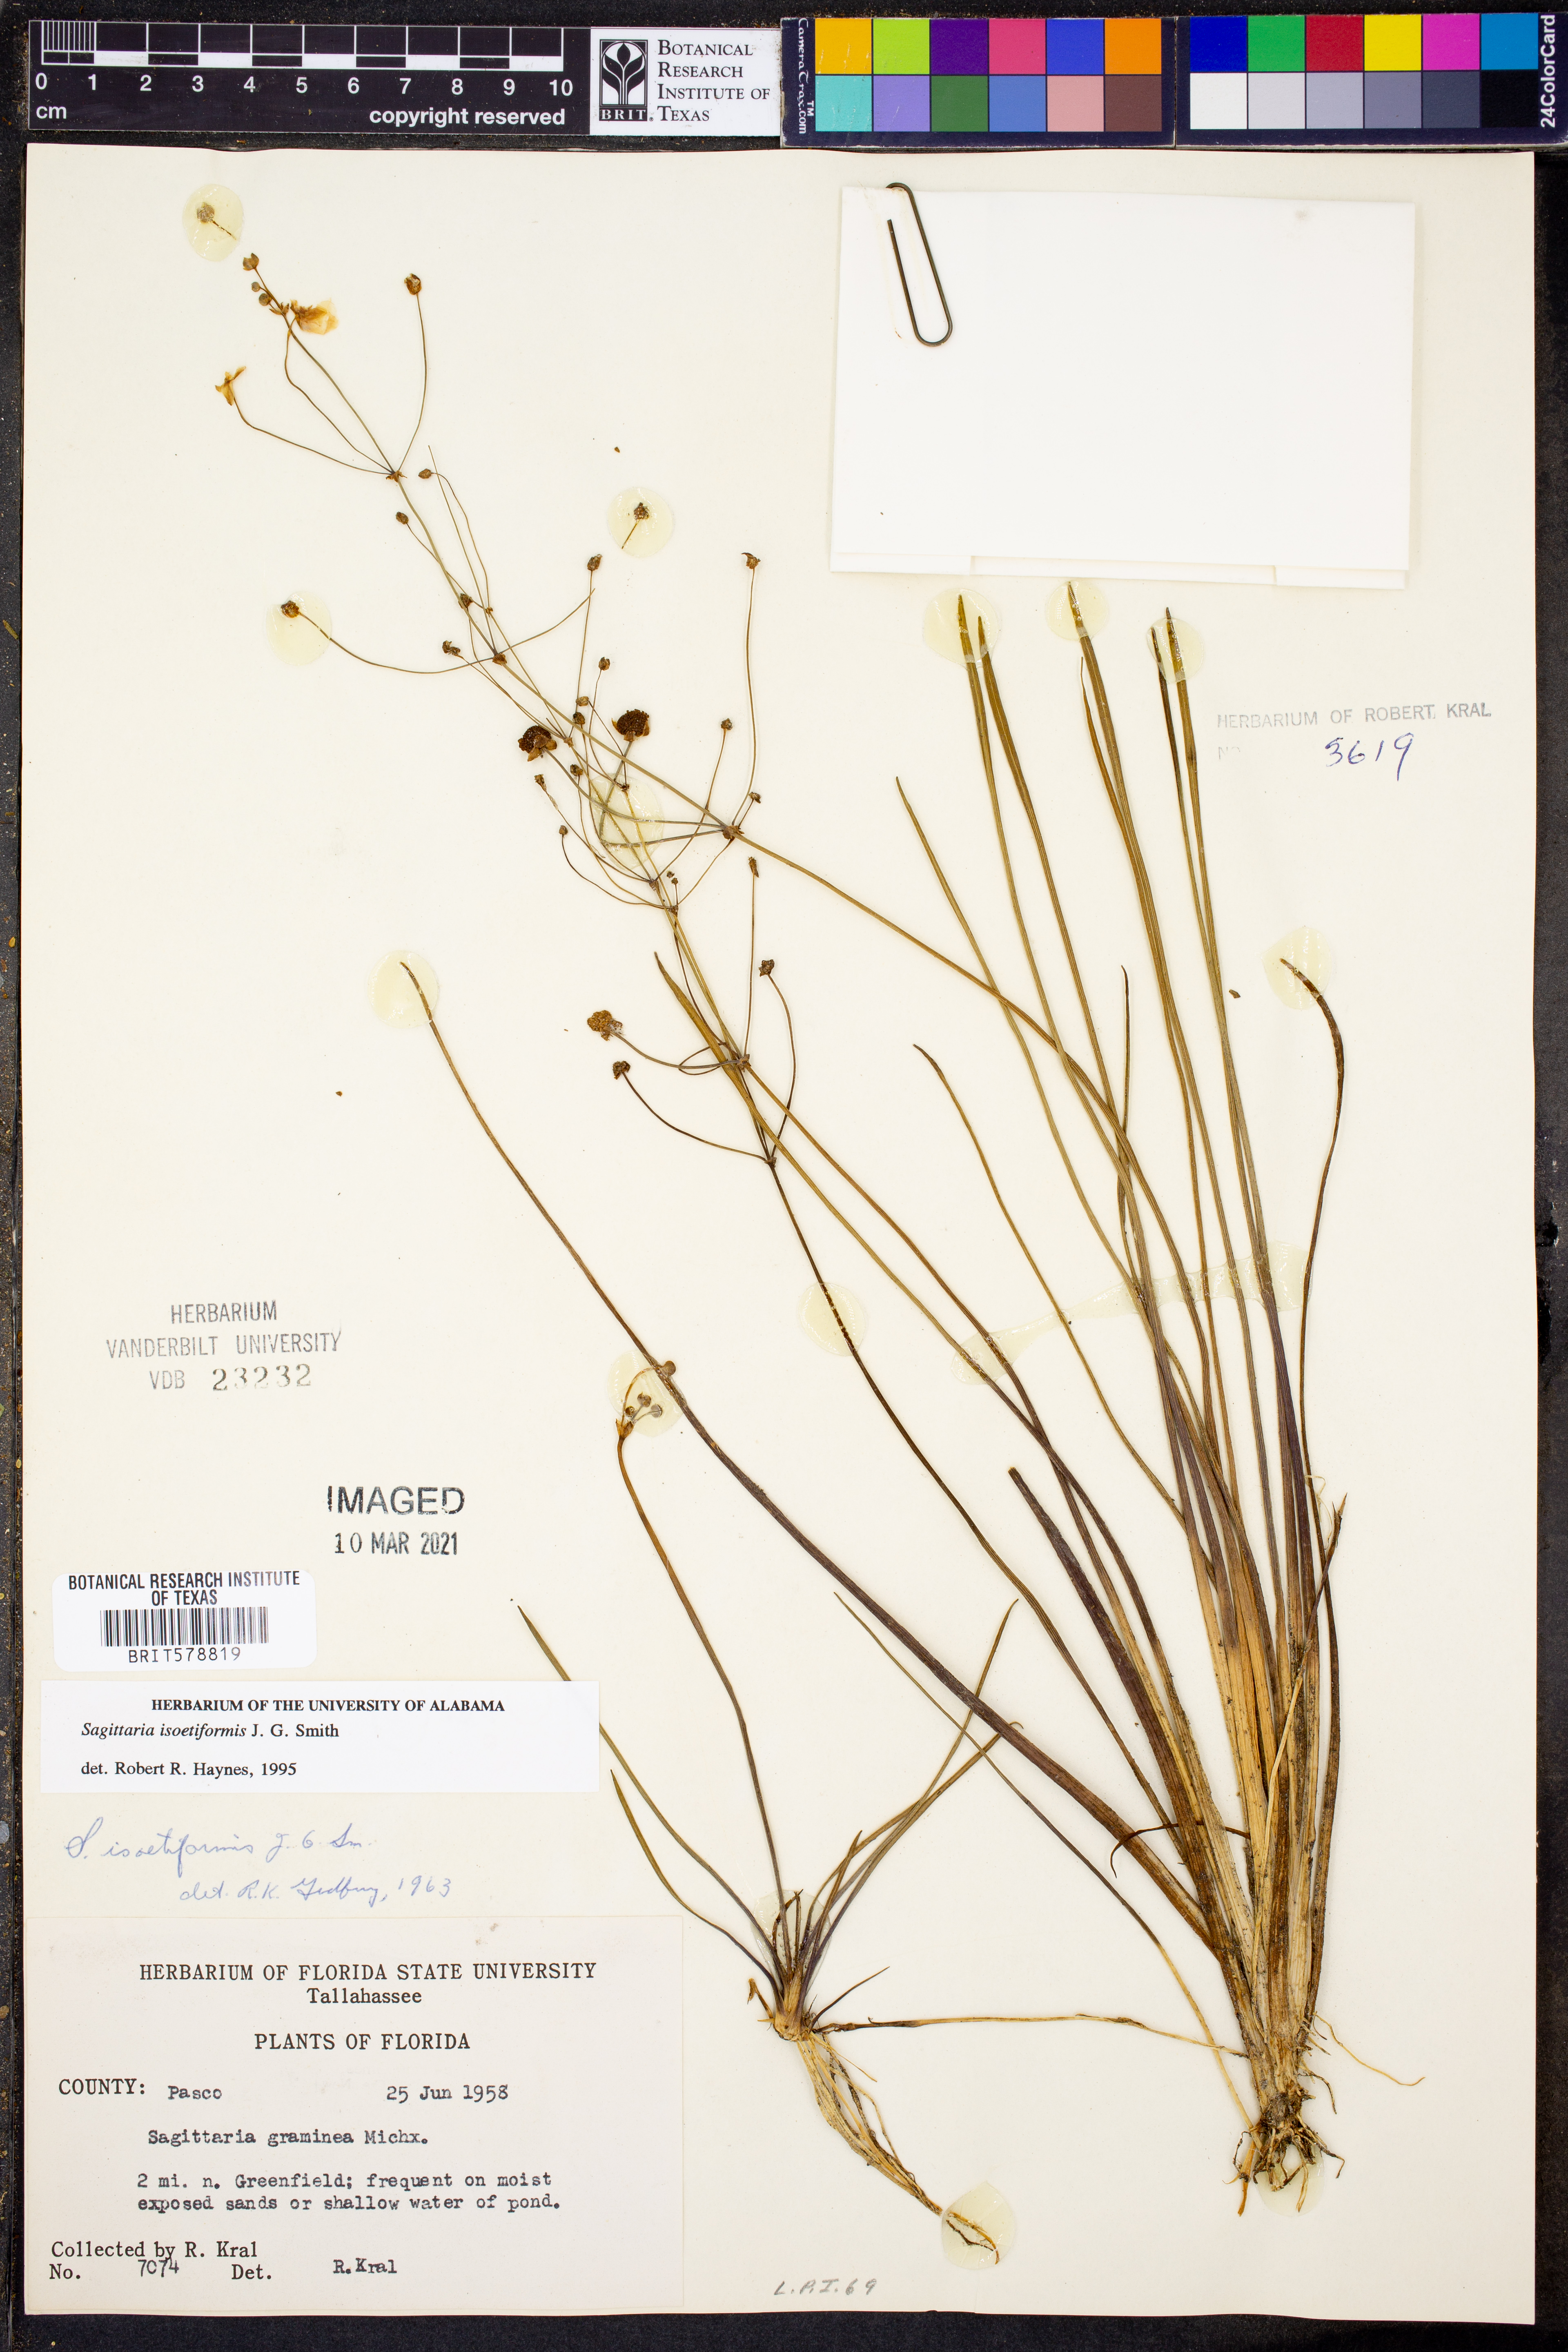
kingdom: Plantae
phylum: Tracheophyta
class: Liliopsida
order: Alismatales
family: Alismataceae
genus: Sagittaria
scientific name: Sagittaria isoetiformis
